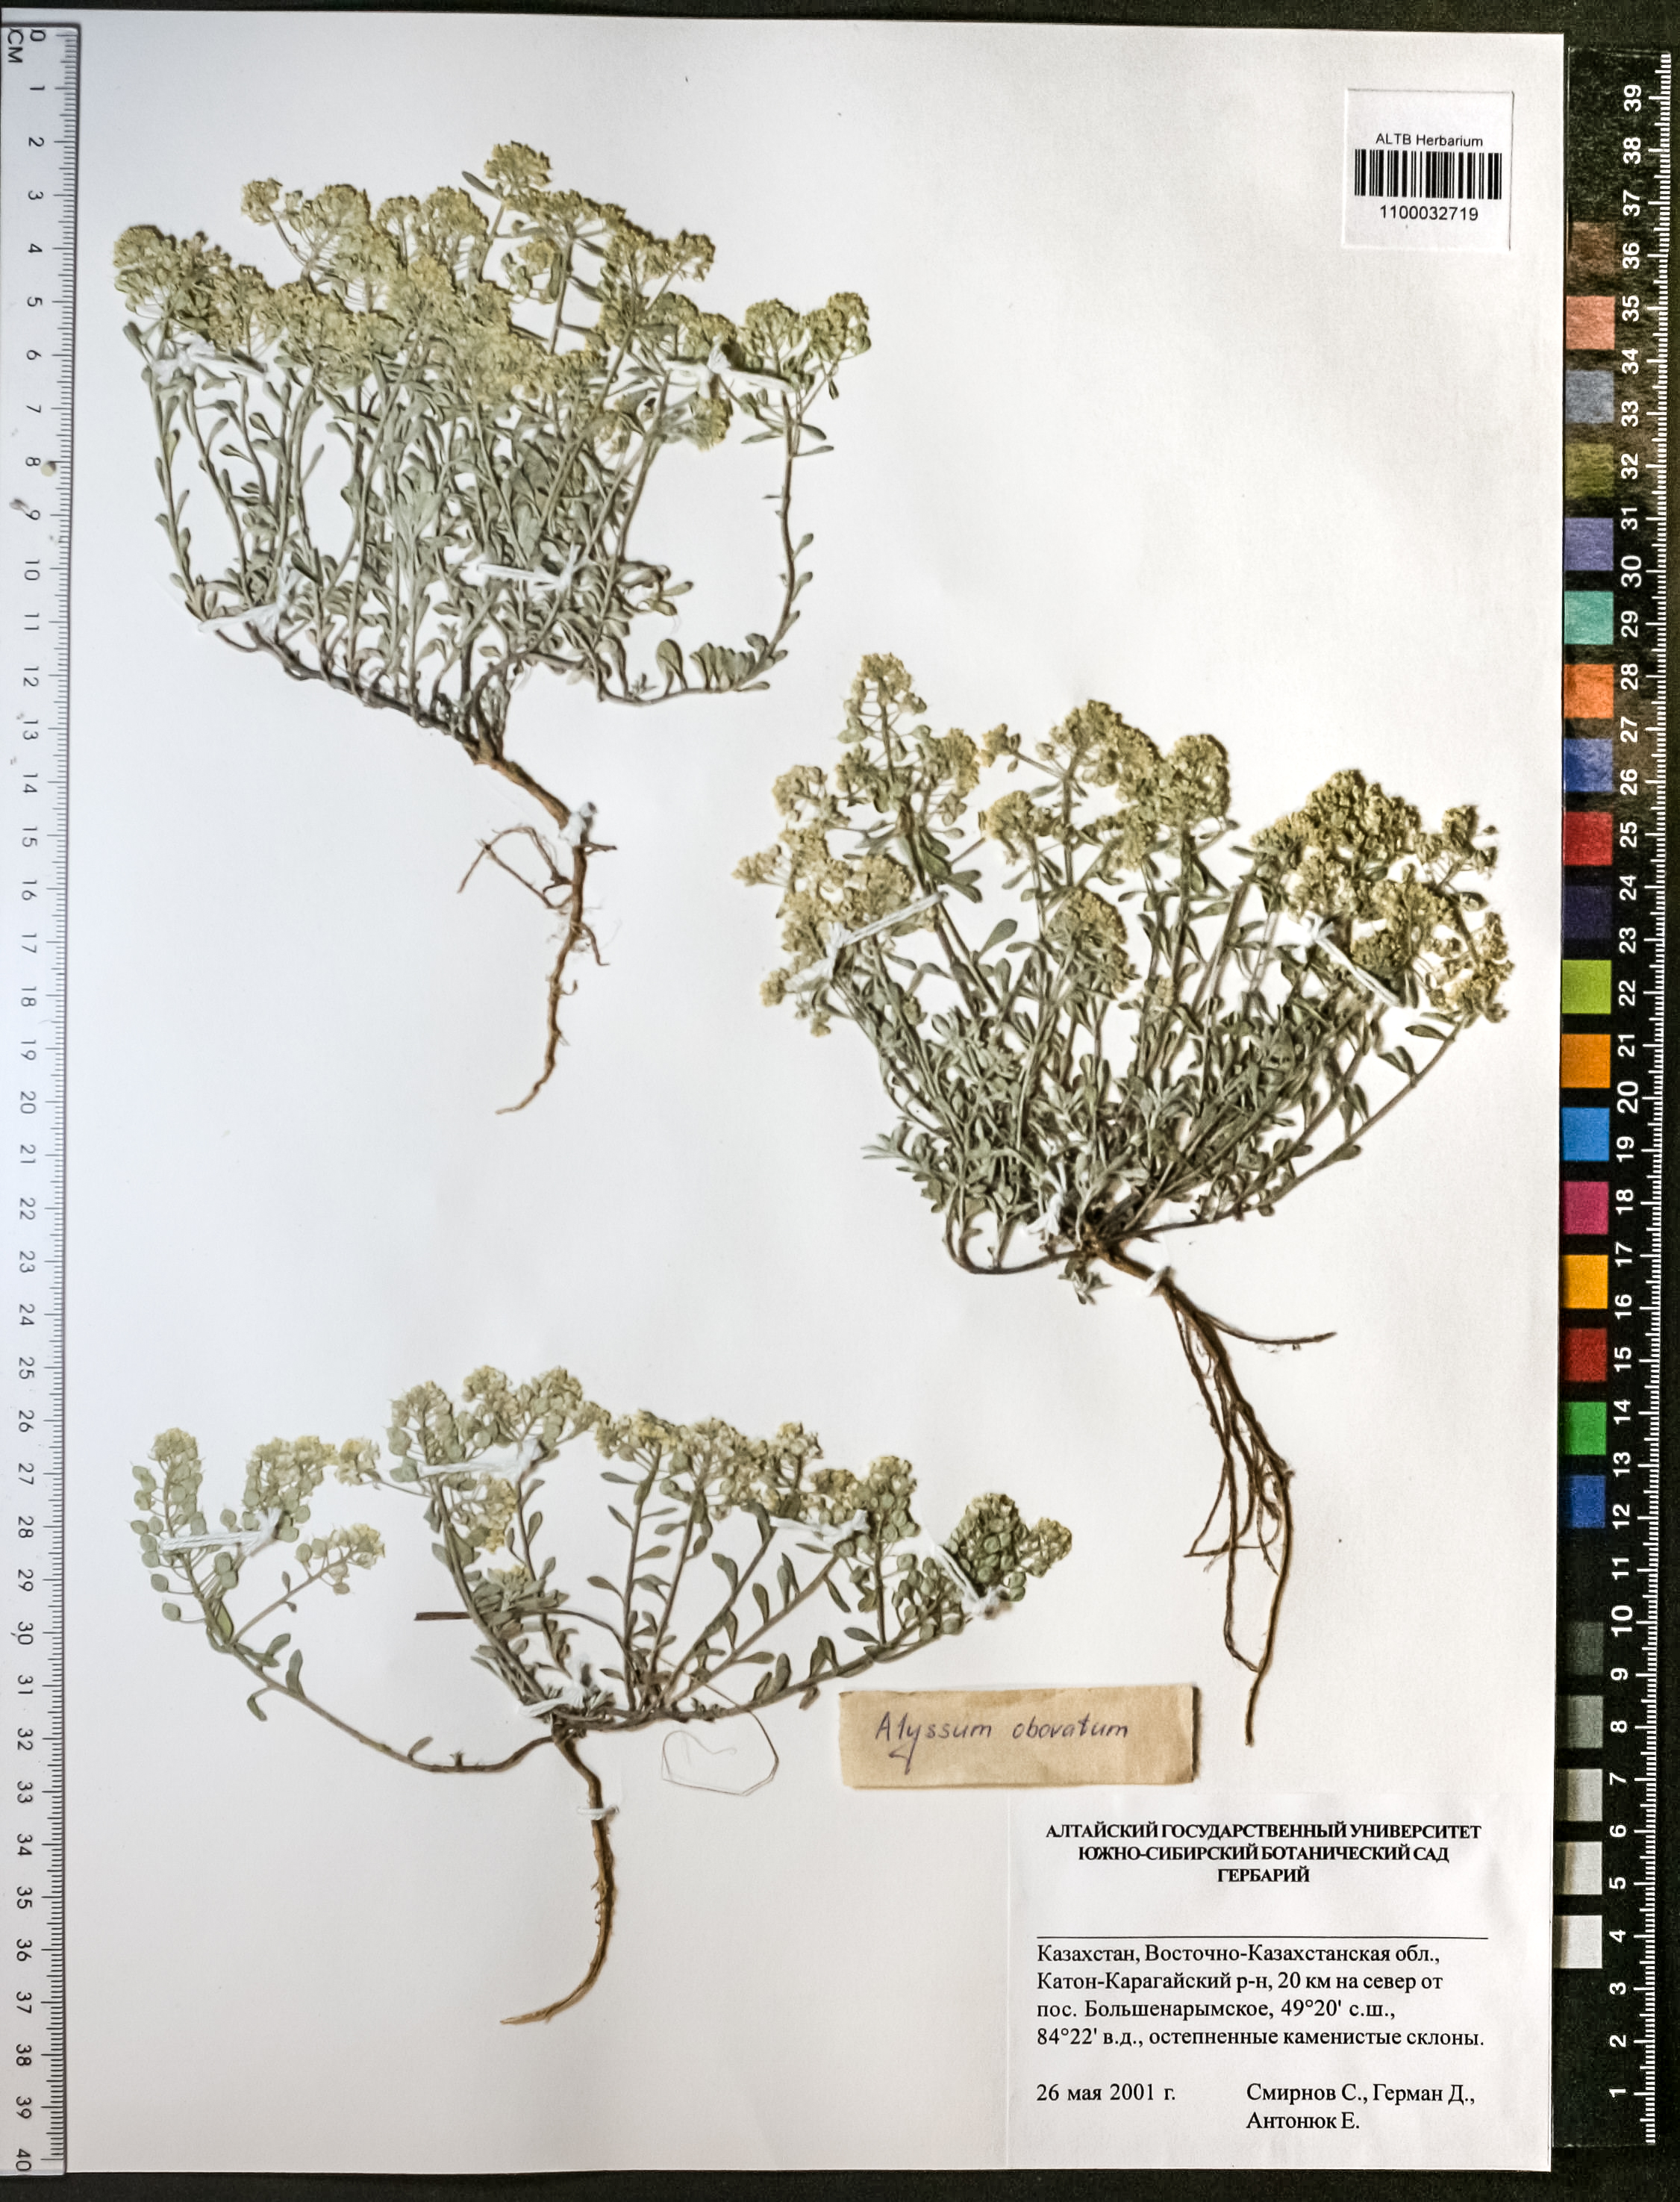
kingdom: Plantae
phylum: Tracheophyta
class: Magnoliopsida
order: Brassicales
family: Brassicaceae
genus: Odontarrhena
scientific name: Odontarrhena obovata
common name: American alyssum
